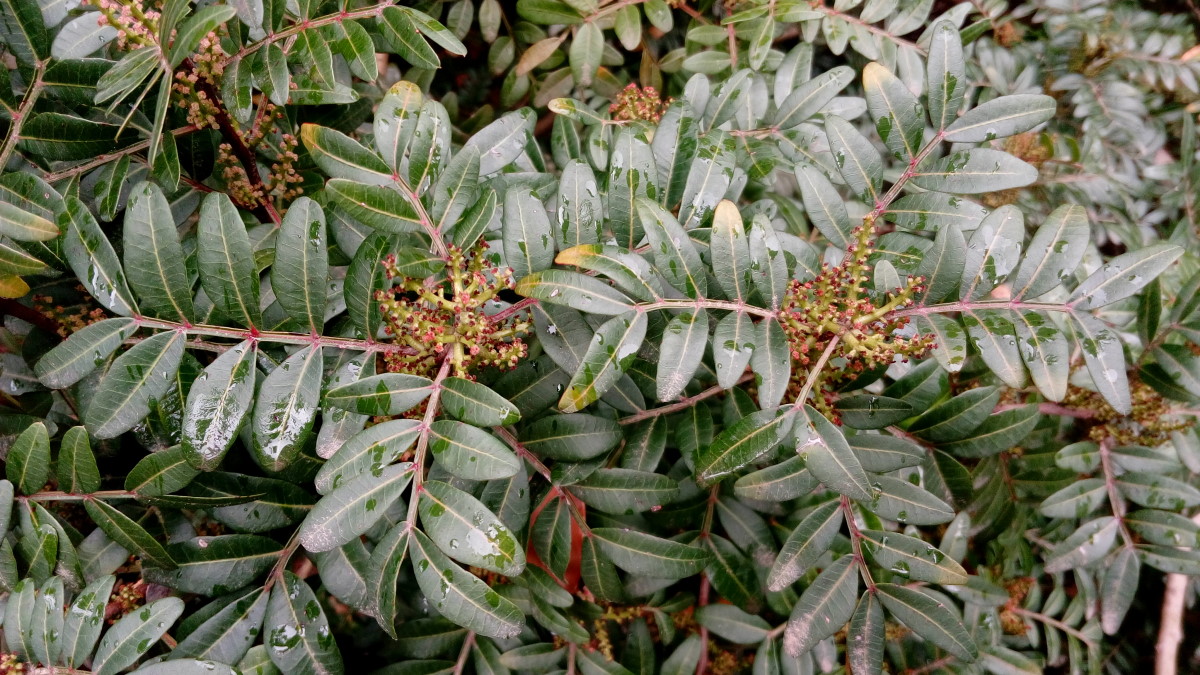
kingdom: Plantae
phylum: Tracheophyta
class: Magnoliopsida
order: Sapindales
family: Anacardiaceae
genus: Pistacia
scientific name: Pistacia lentiscus
